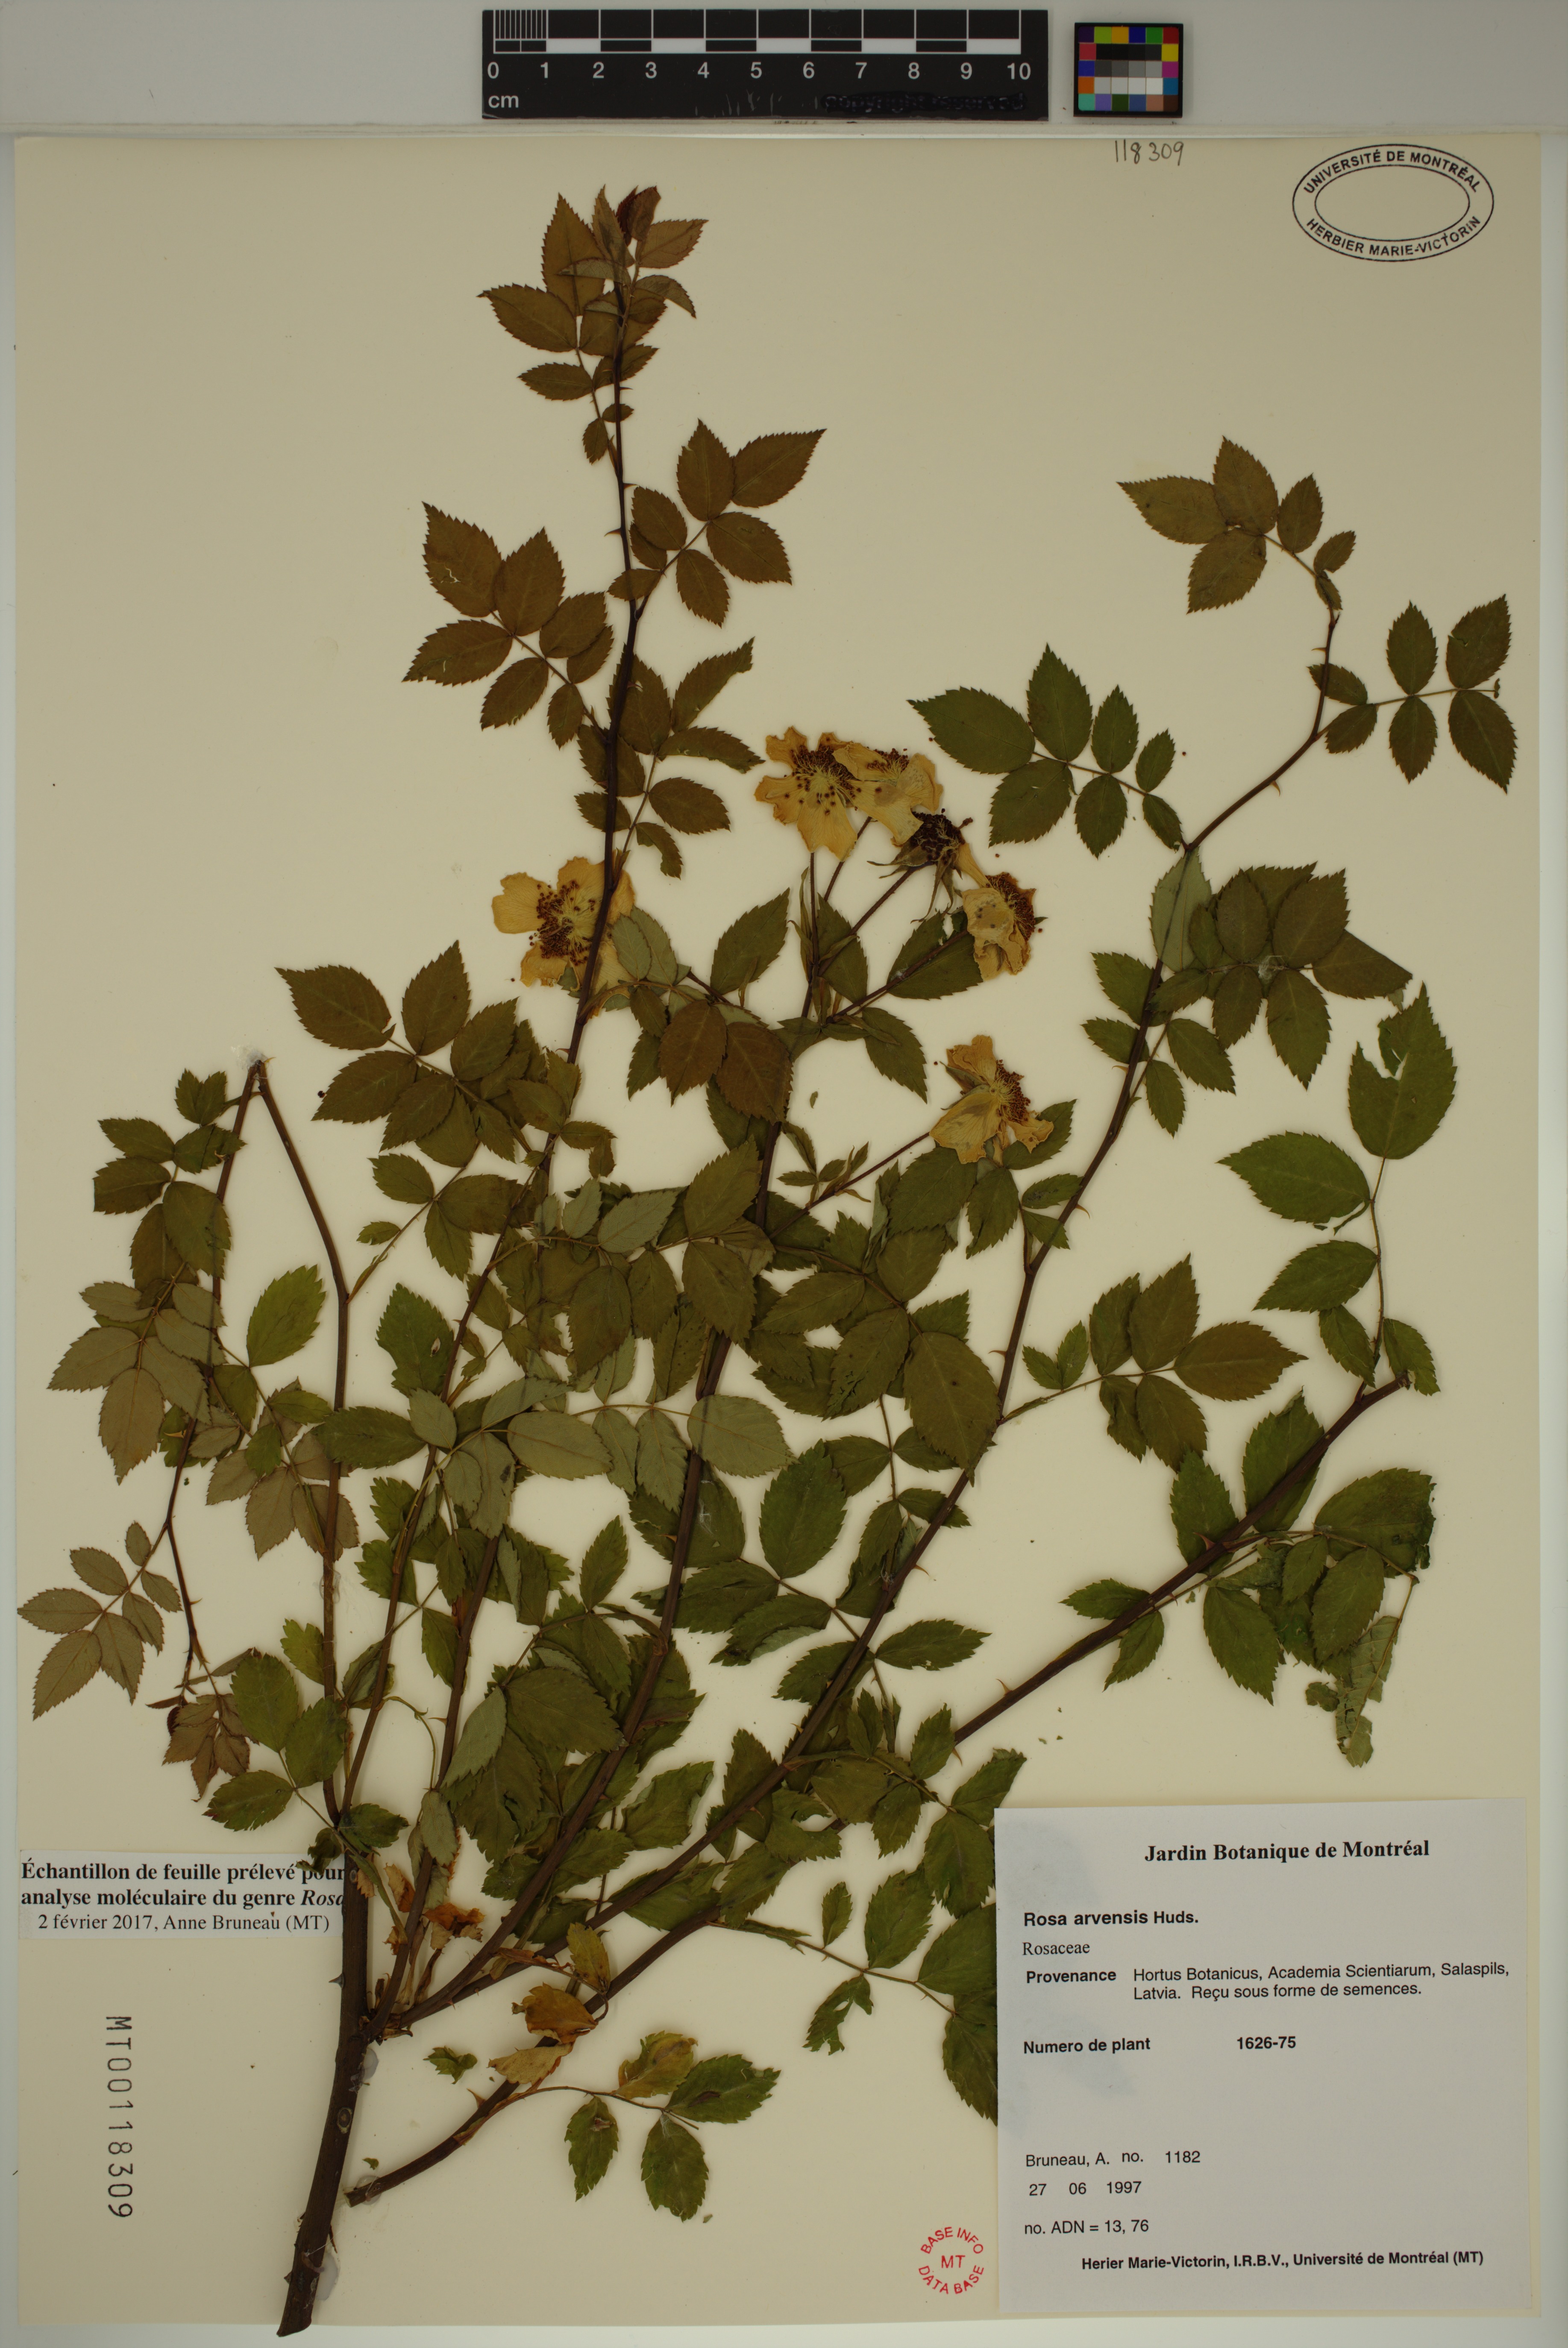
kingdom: Plantae
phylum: Tracheophyta
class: Magnoliopsida
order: Rosales
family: Rosaceae
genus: Rosa
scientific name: Rosa arvensis
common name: Field rose
